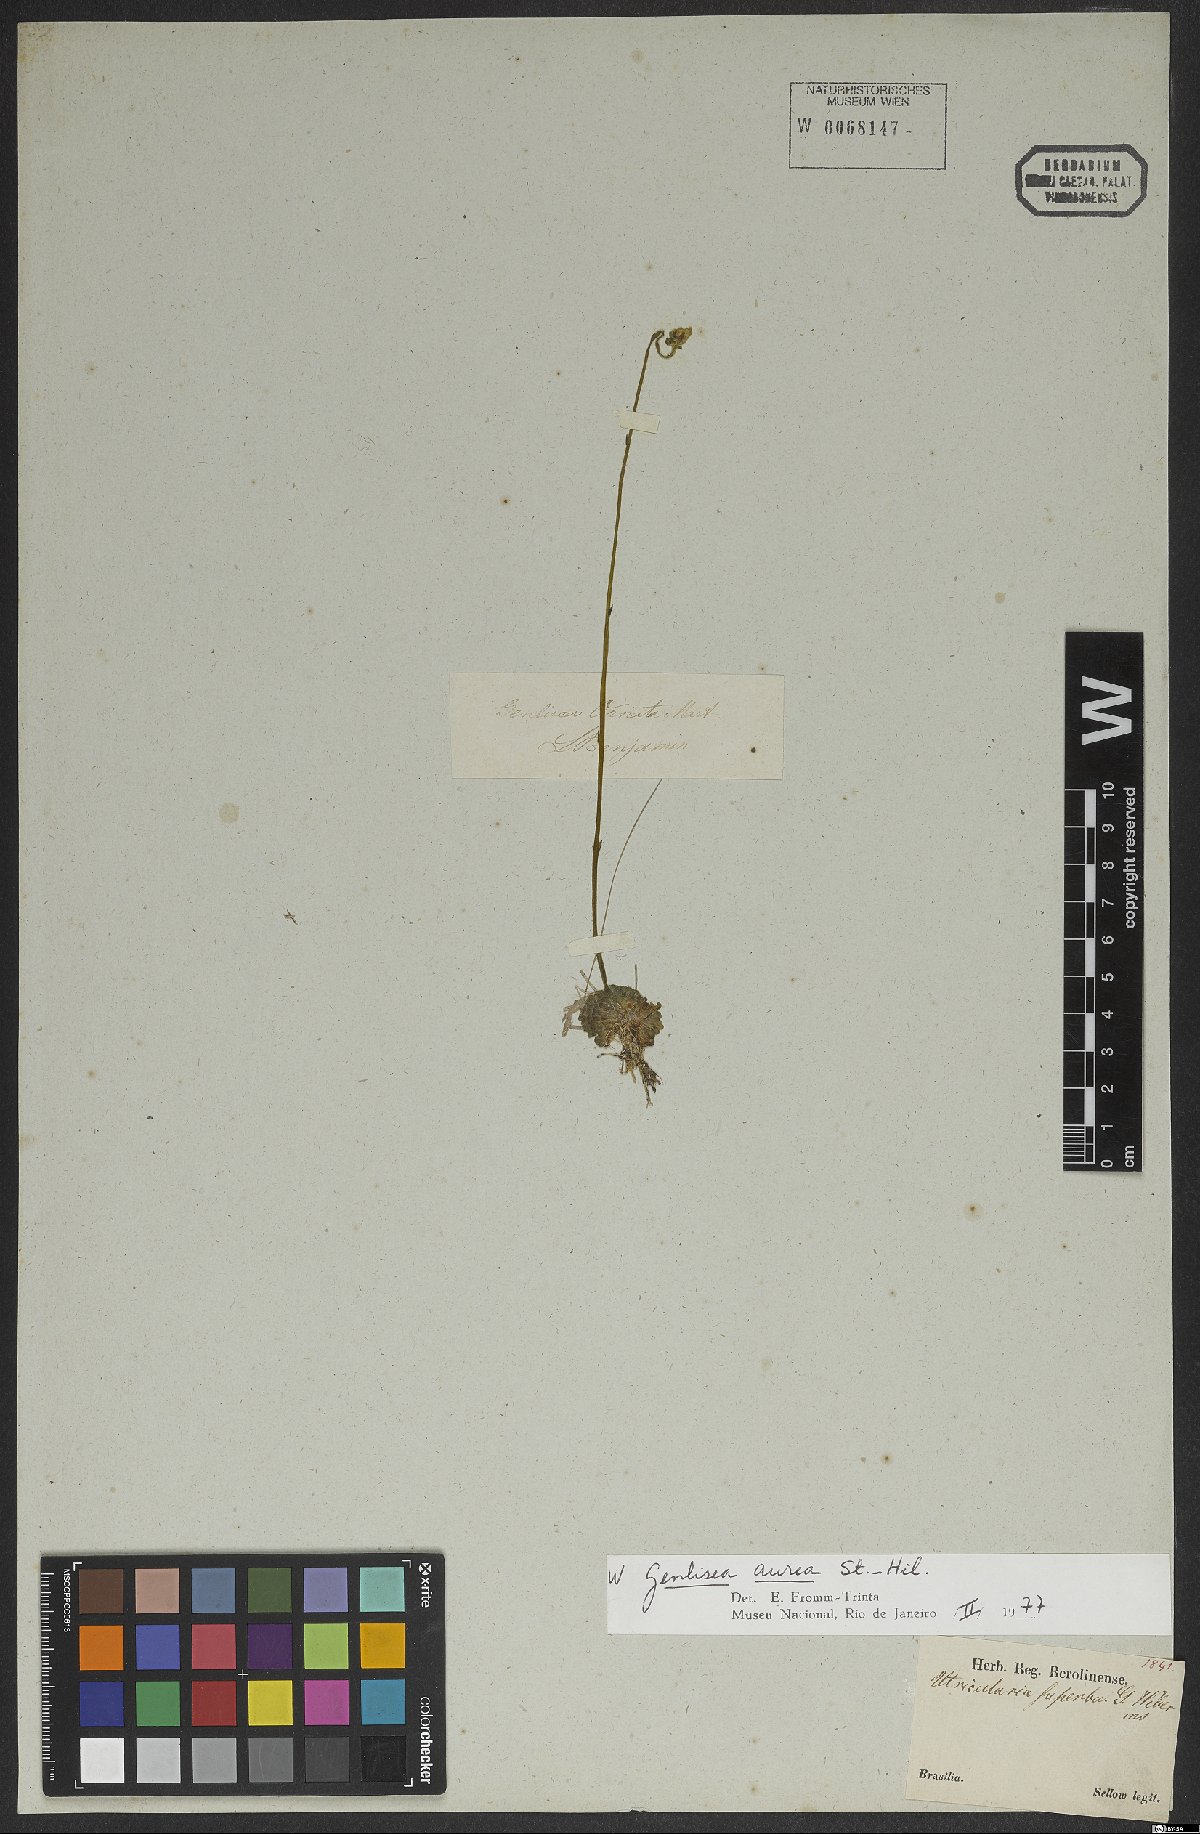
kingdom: Plantae
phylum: Tracheophyta
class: Magnoliopsida
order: Lamiales
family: Lentibulariaceae
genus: Genlisea
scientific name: Genlisea aurea
